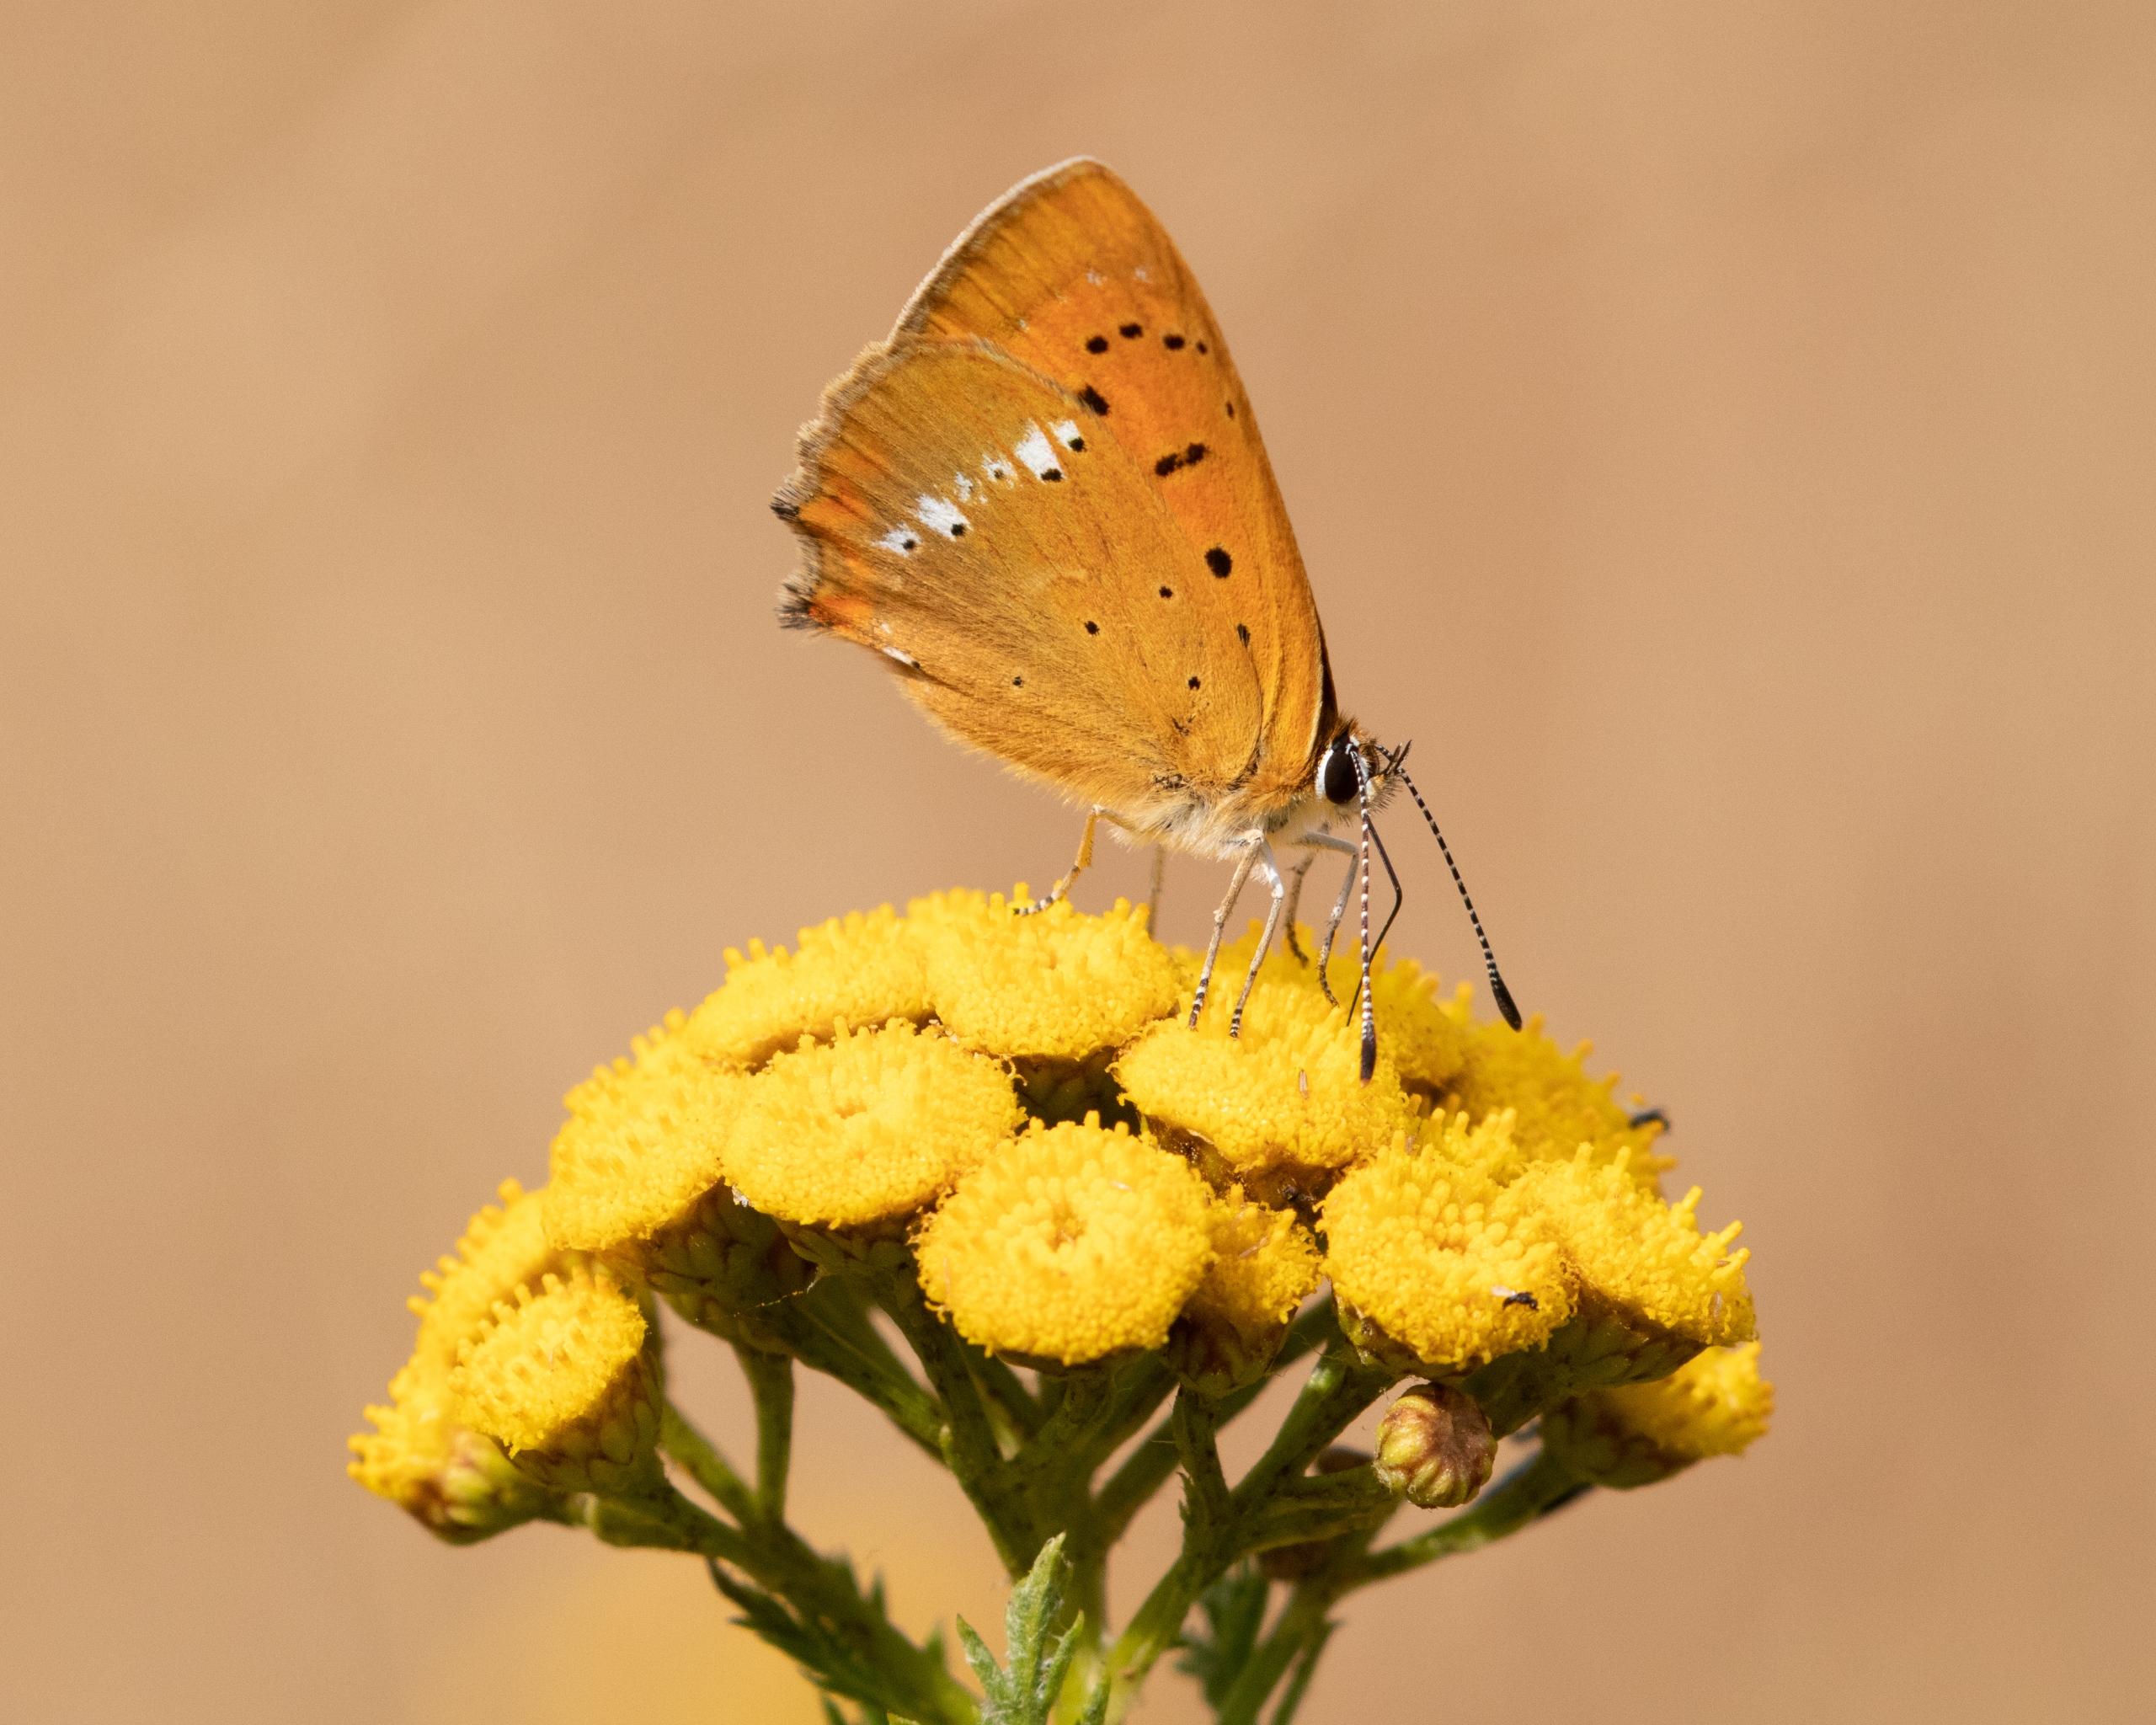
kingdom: Animalia
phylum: Arthropoda
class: Insecta
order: Lepidoptera
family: Lycaenidae
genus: Lycaena
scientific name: Lycaena virgaureae
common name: Dukatsommerfugl
